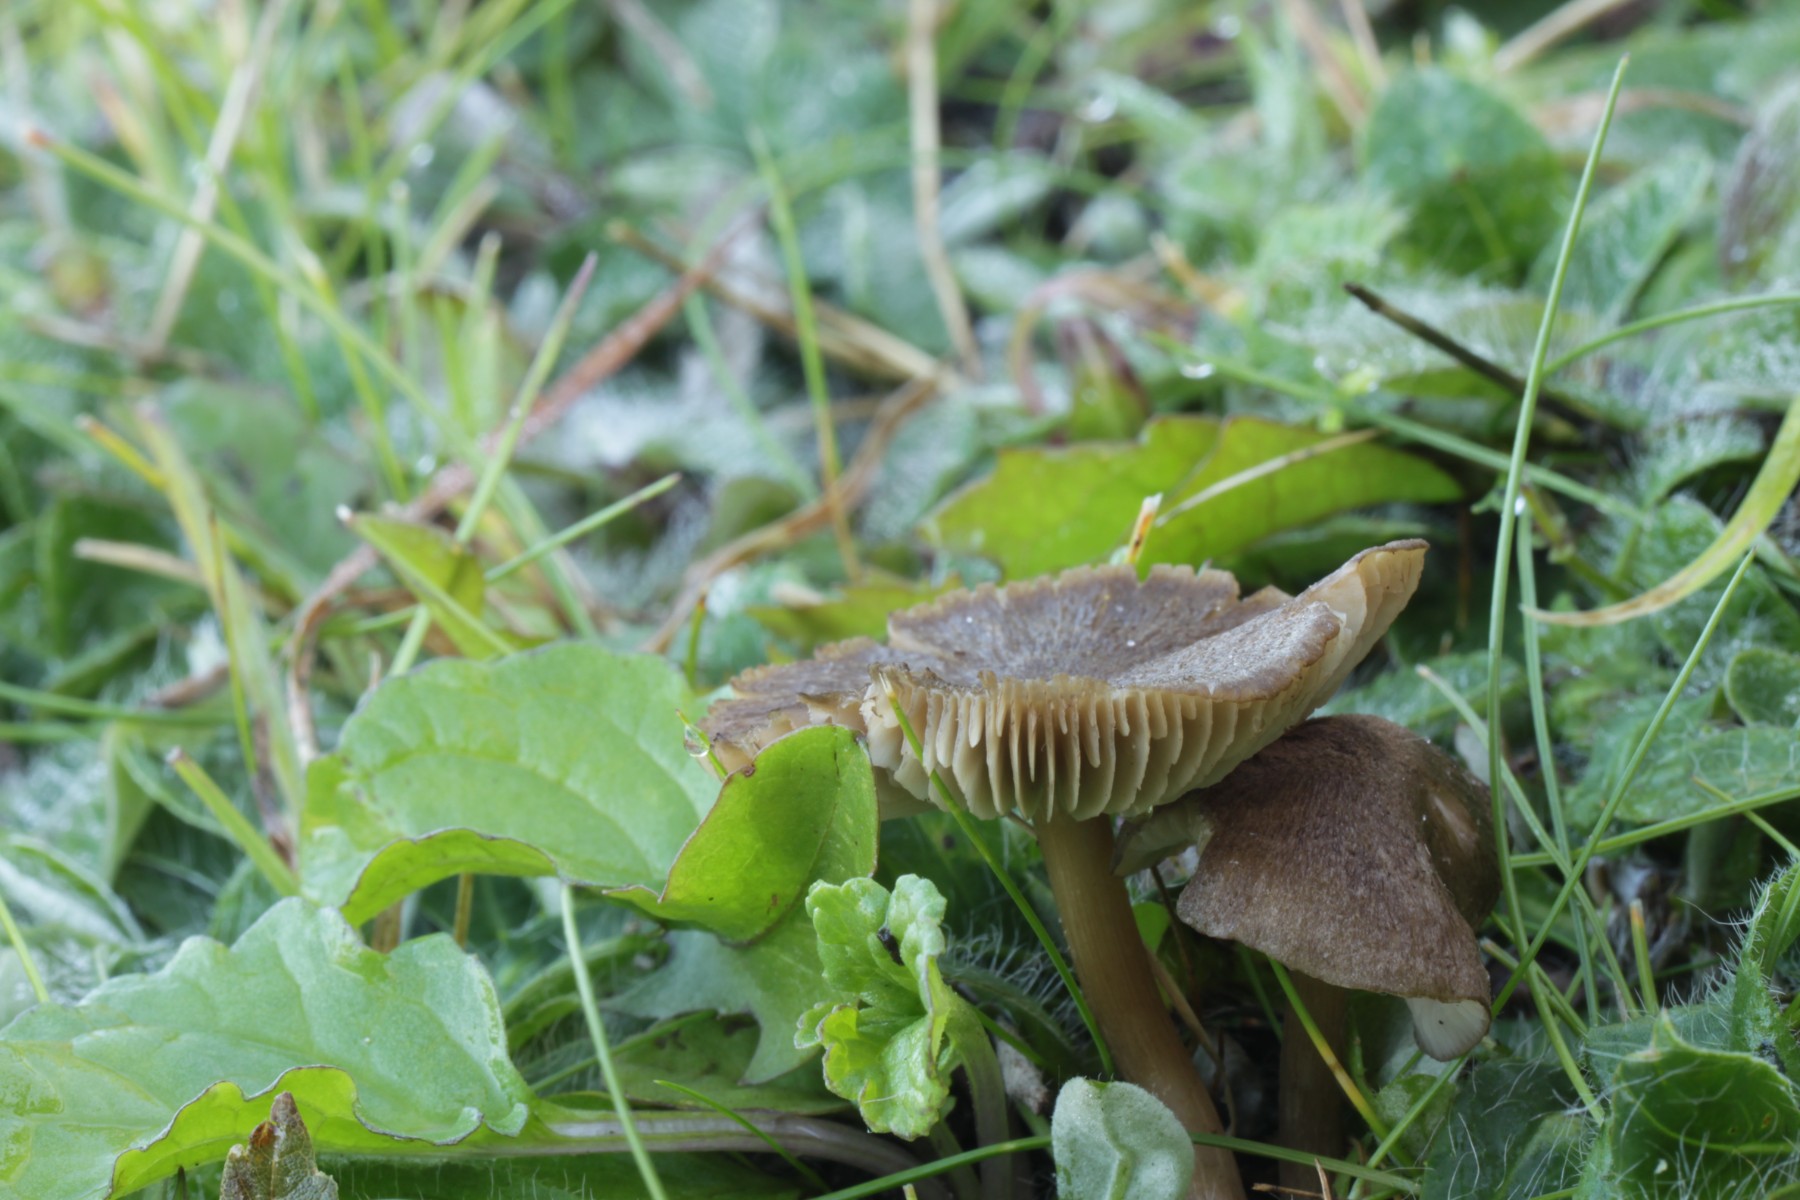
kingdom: Fungi
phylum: Basidiomycota
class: Agaricomycetes
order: Agaricales
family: Entolomataceae
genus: Entoloma
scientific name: Entoloma turci
